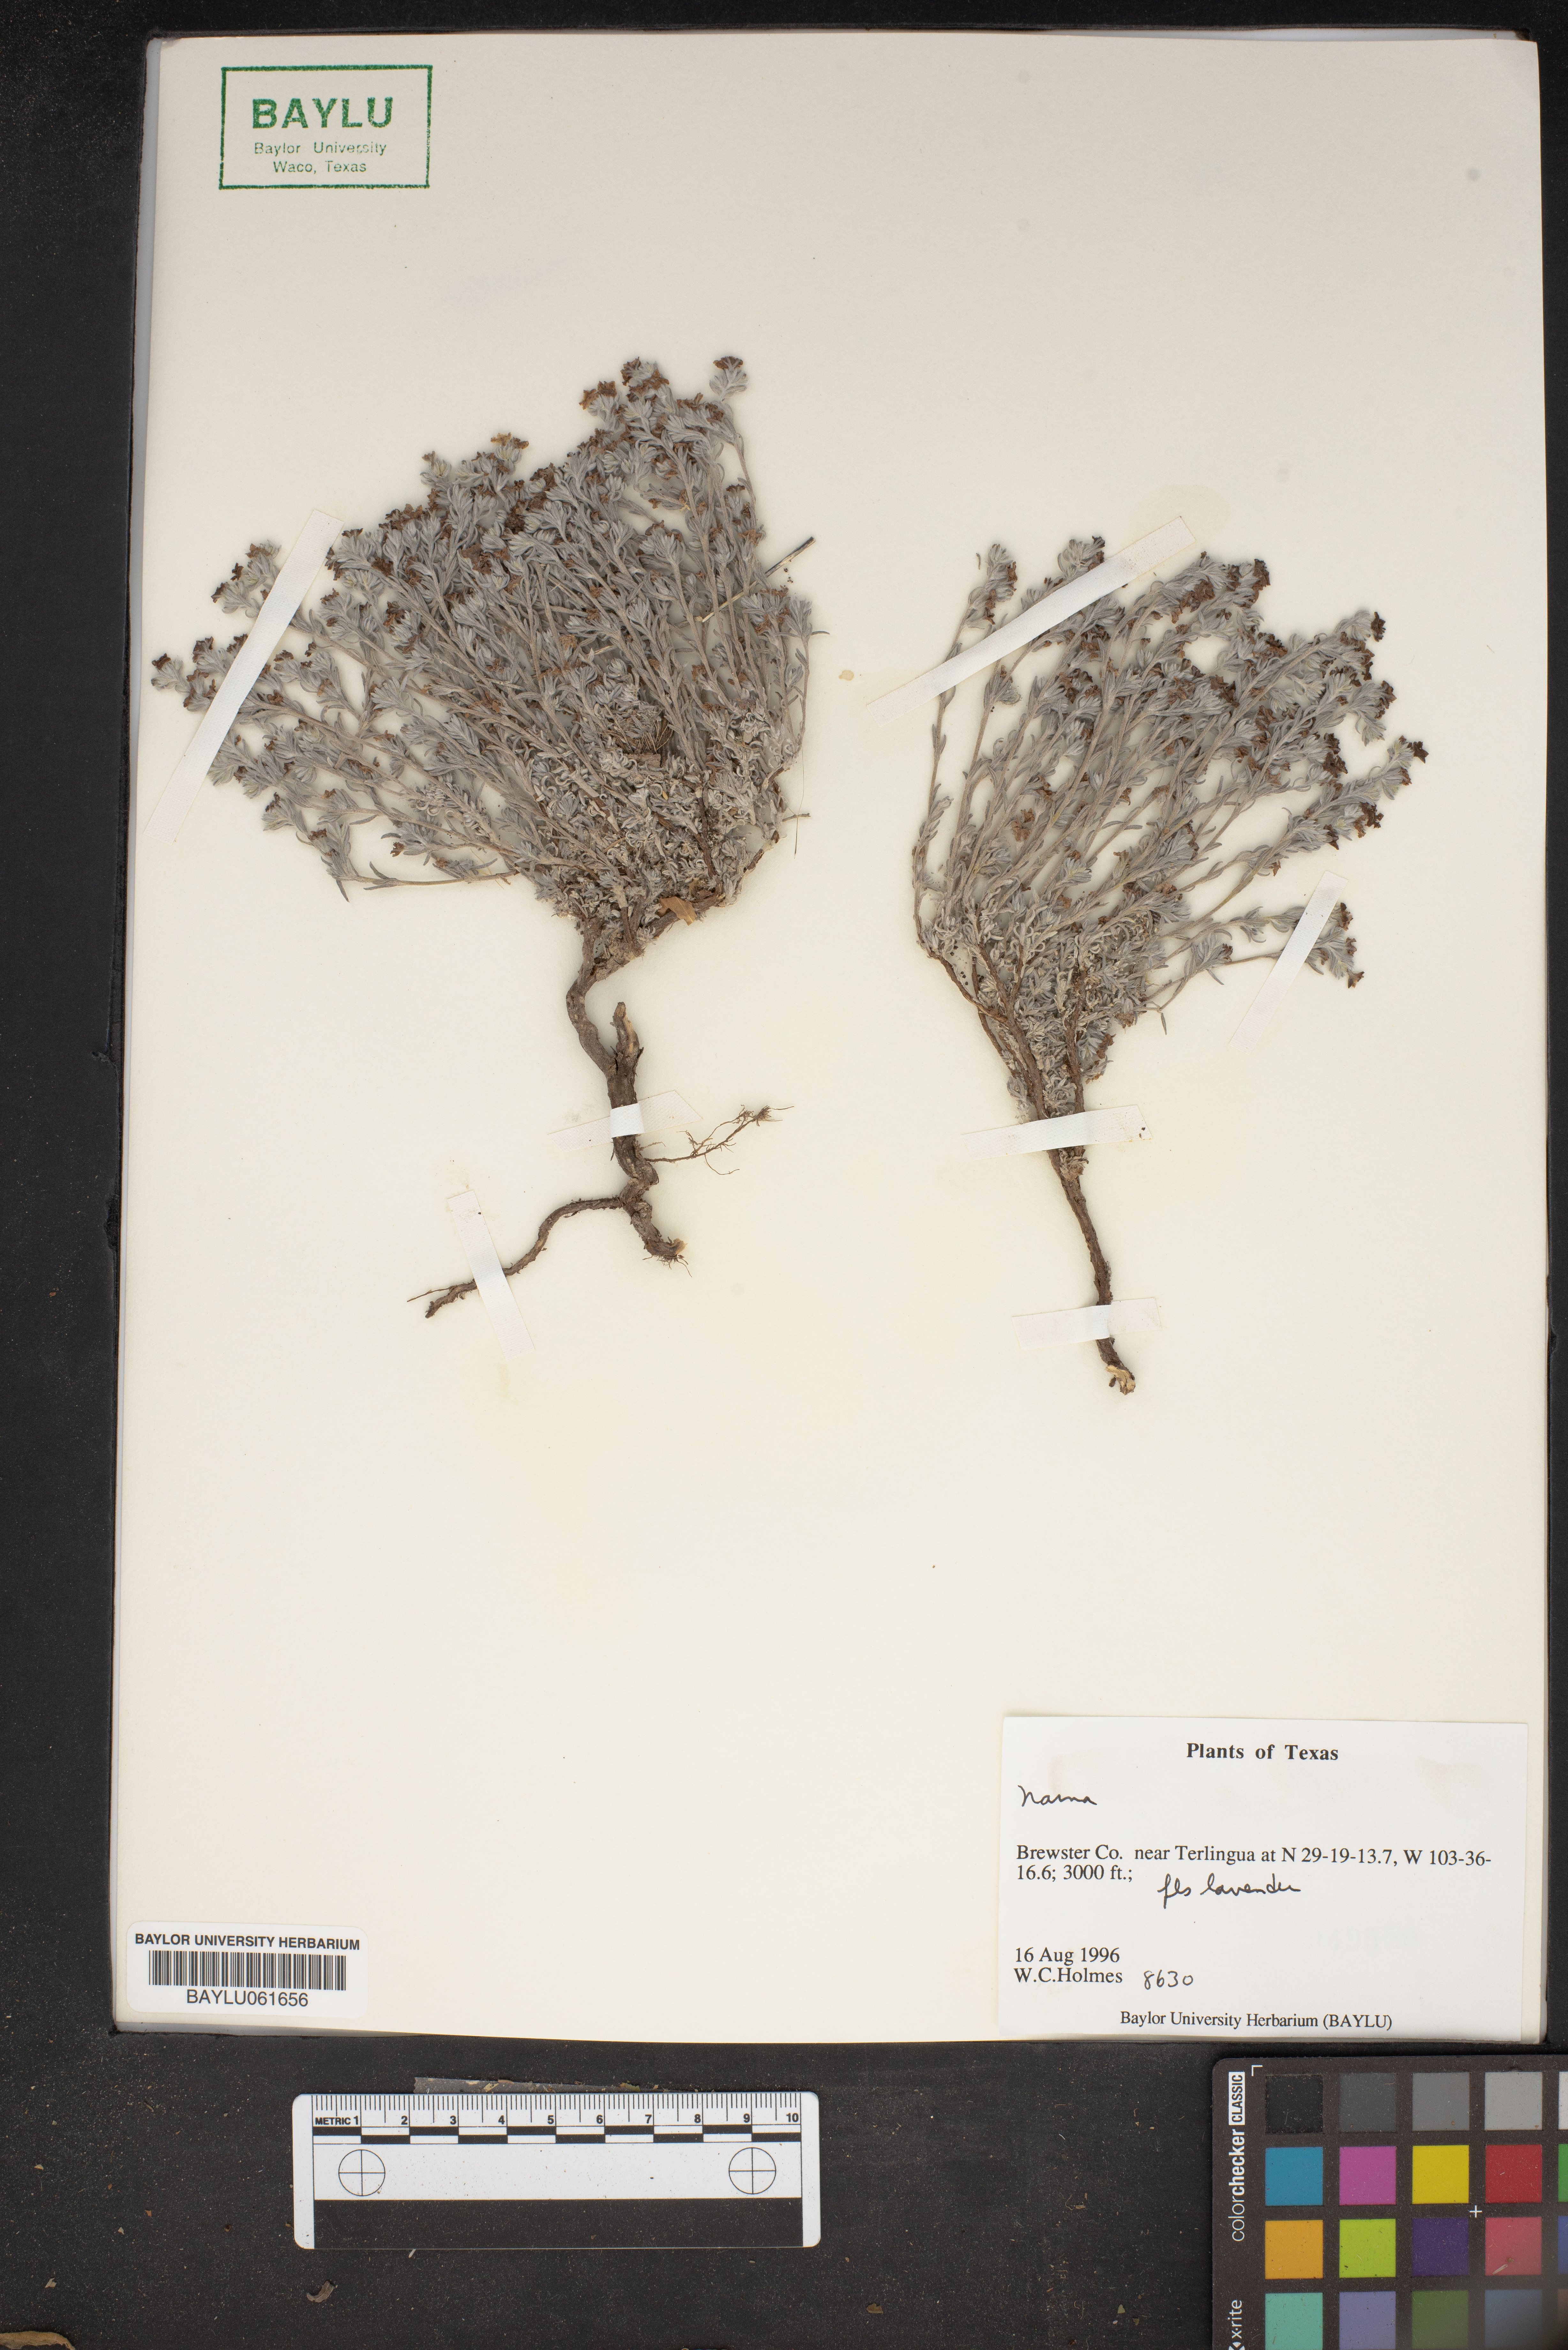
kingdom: Plantae
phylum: Tracheophyta
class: Magnoliopsida
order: Boraginales
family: Namaceae
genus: Nama
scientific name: Nama
